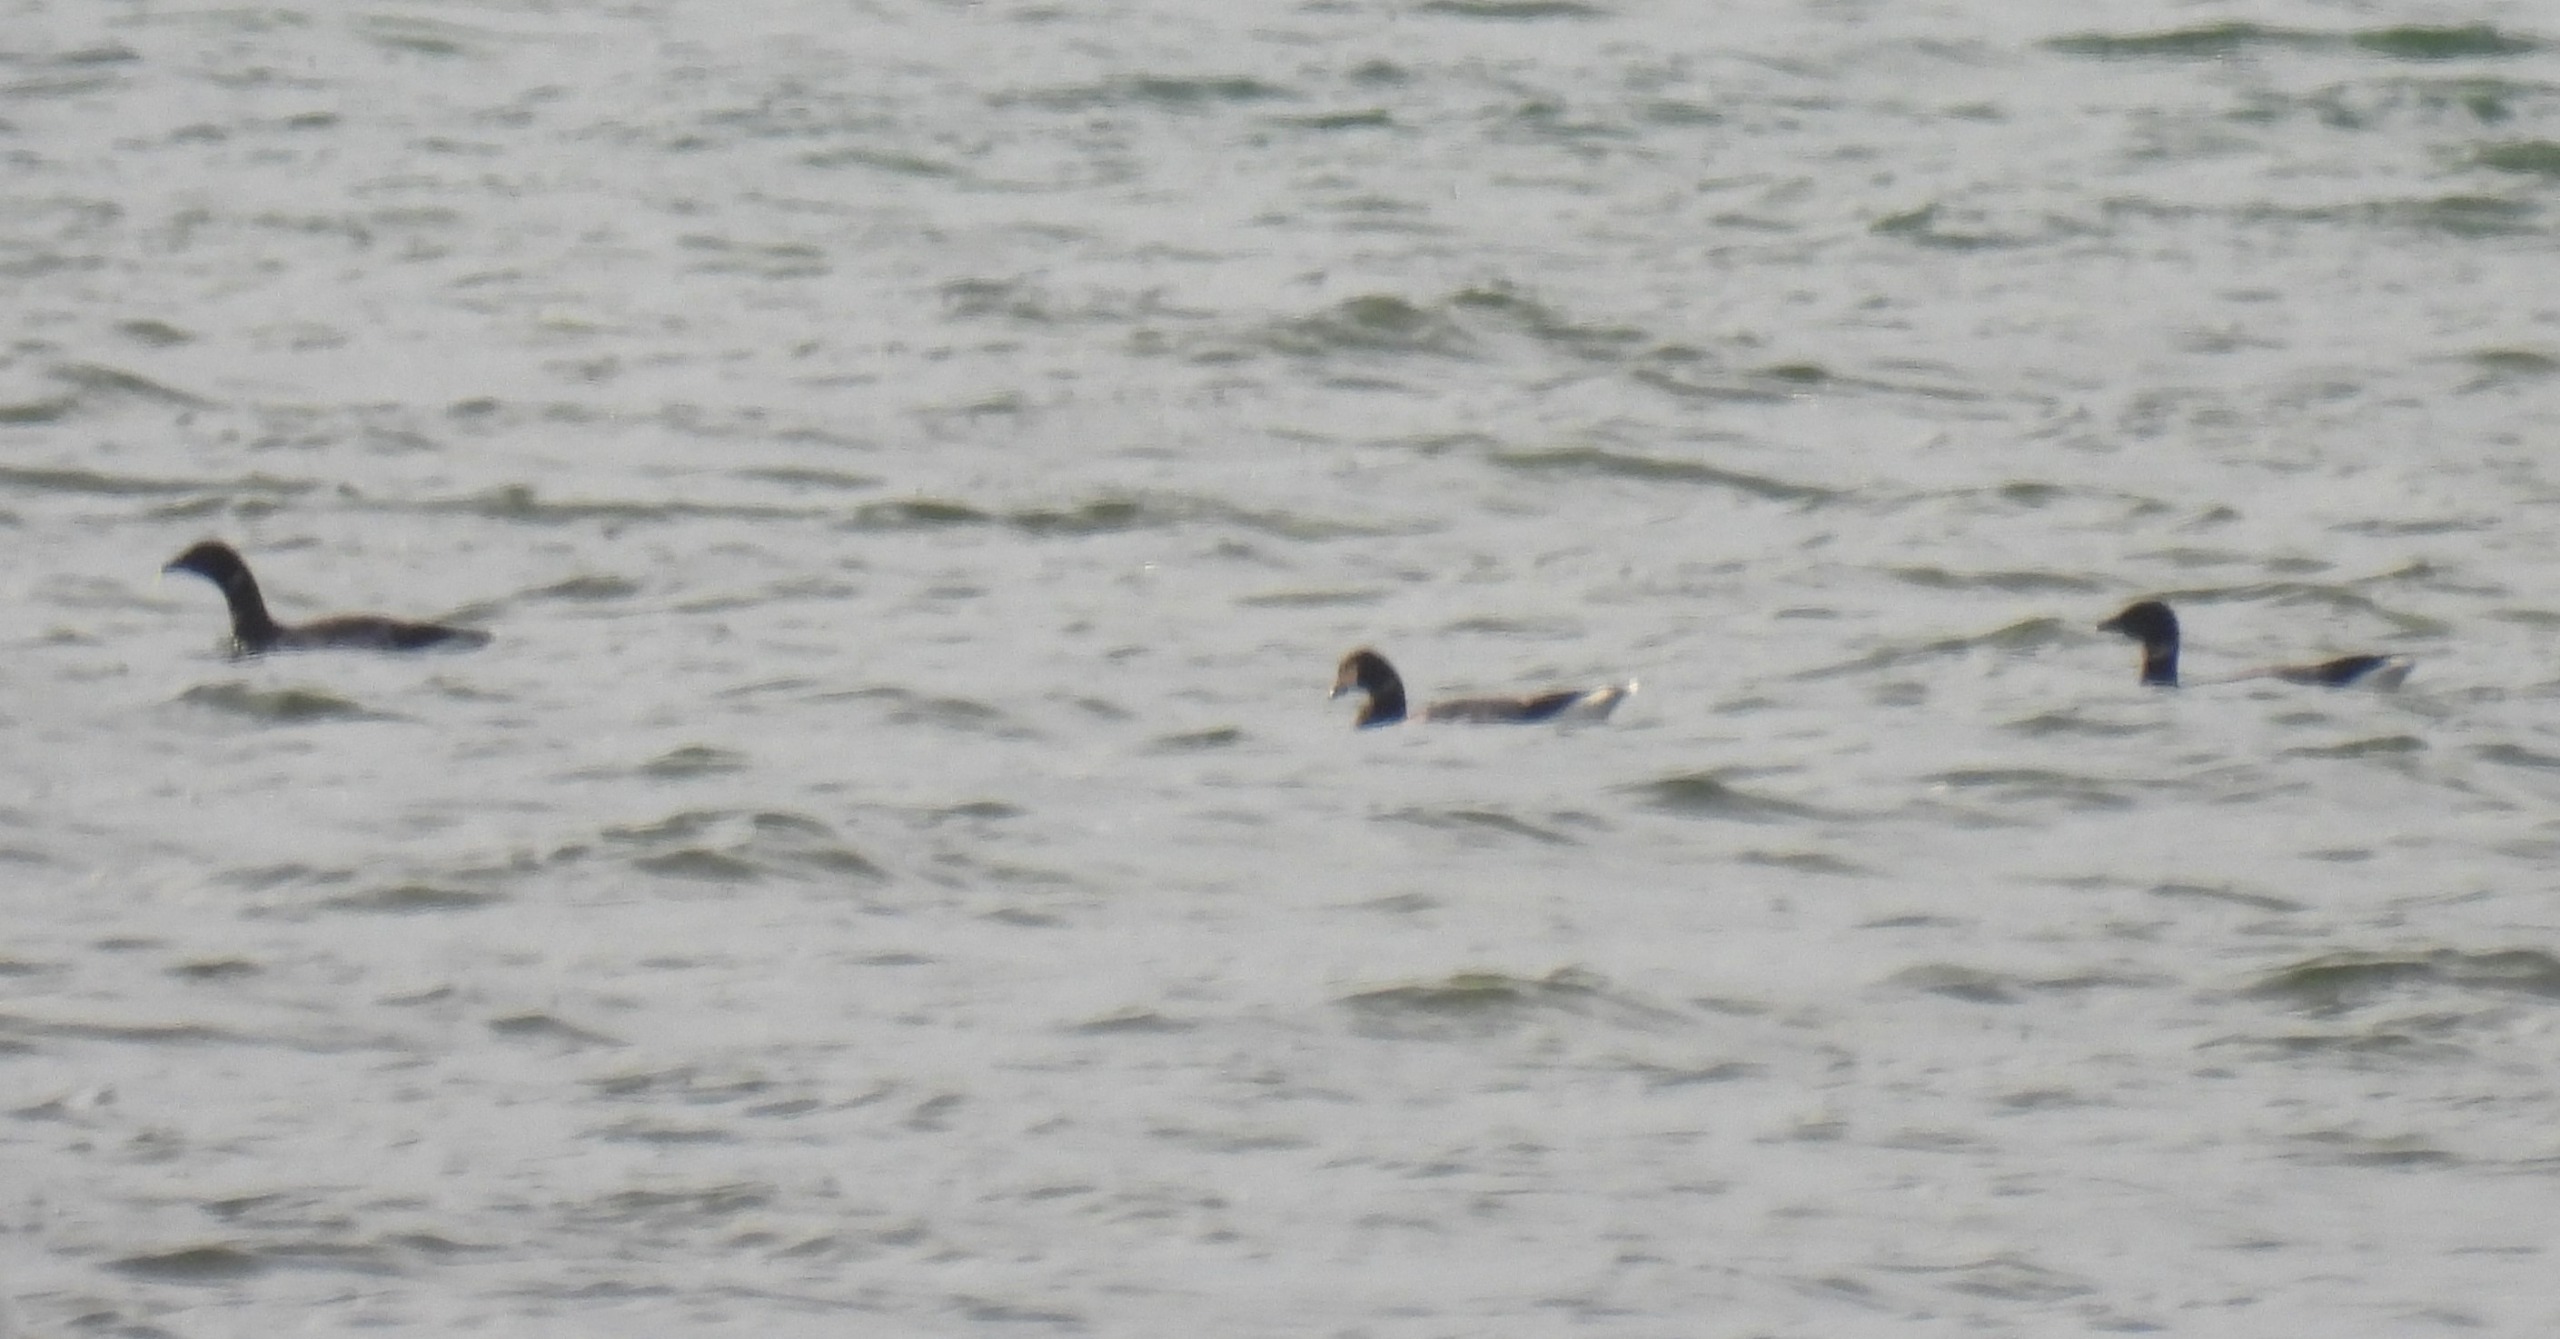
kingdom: Animalia
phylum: Chordata
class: Aves
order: Anseriformes
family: Anatidae
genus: Branta
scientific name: Branta bernicla
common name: Knortegås
